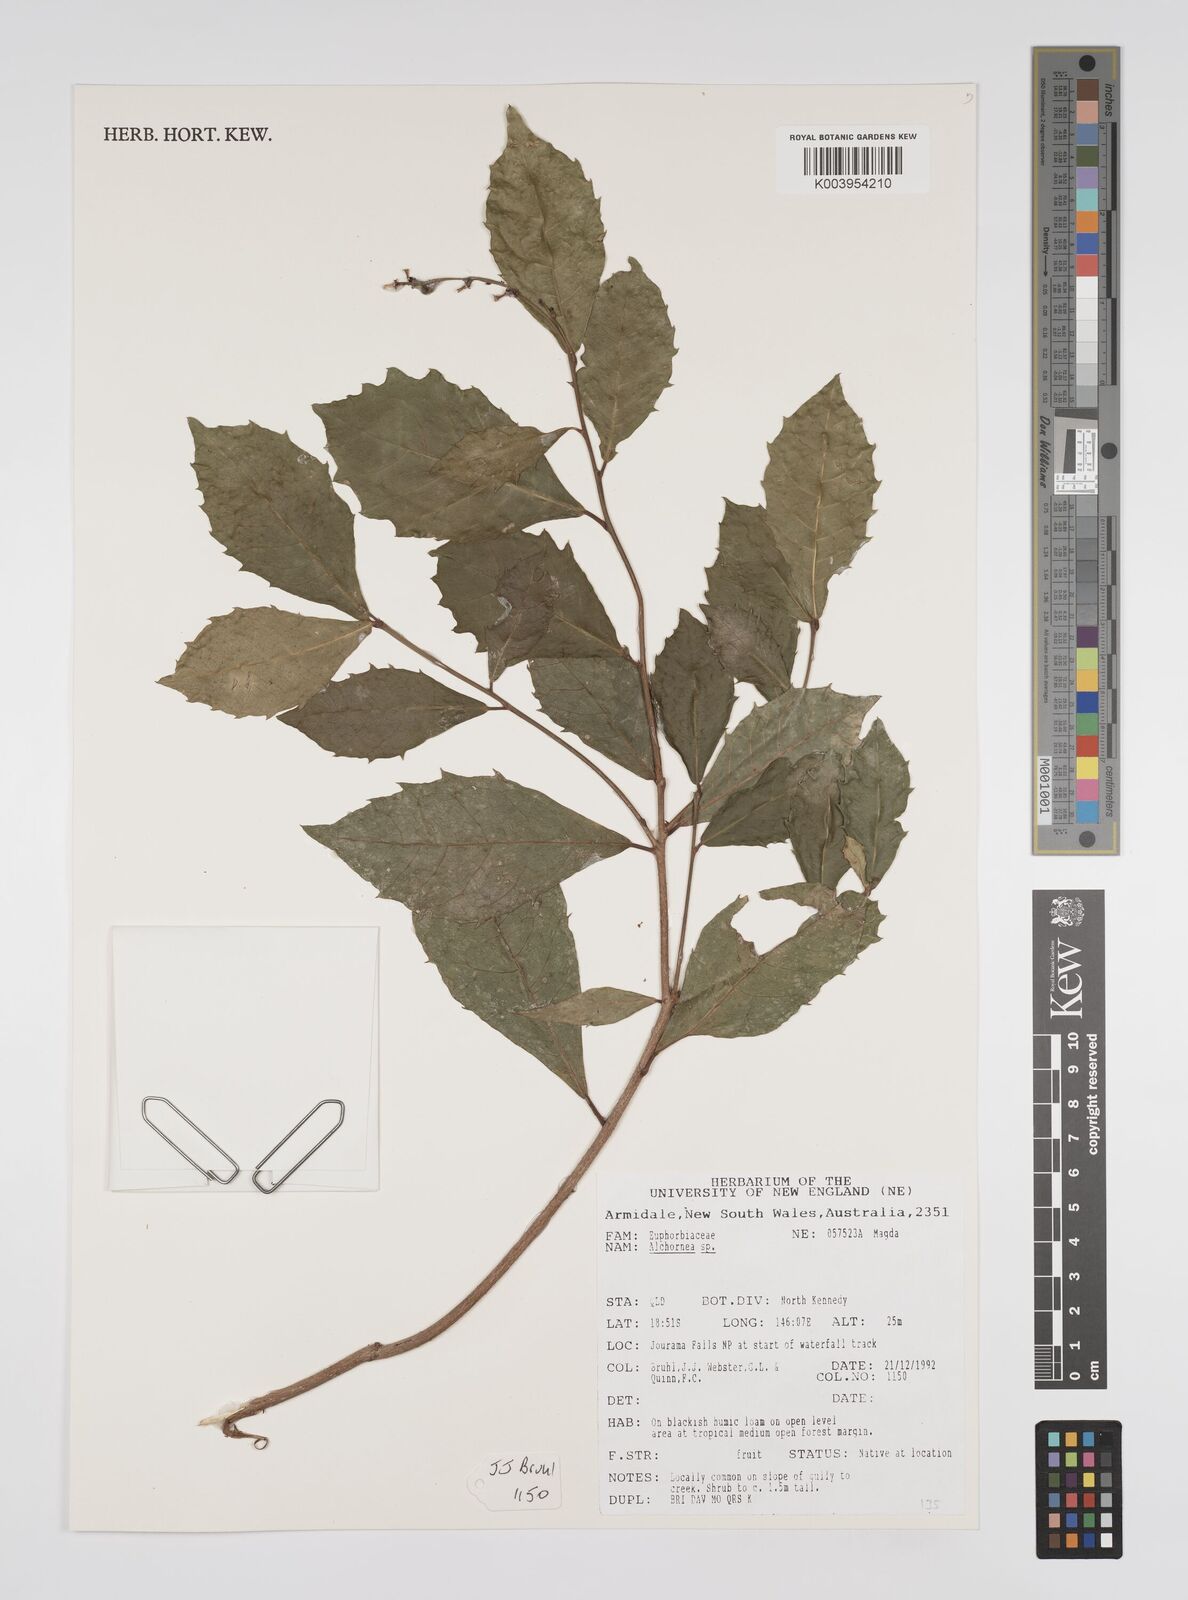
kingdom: Plantae
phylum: Tracheophyta
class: Magnoliopsida
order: Malpighiales
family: Euphorbiaceae
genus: Alchornea
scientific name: Alchornea
